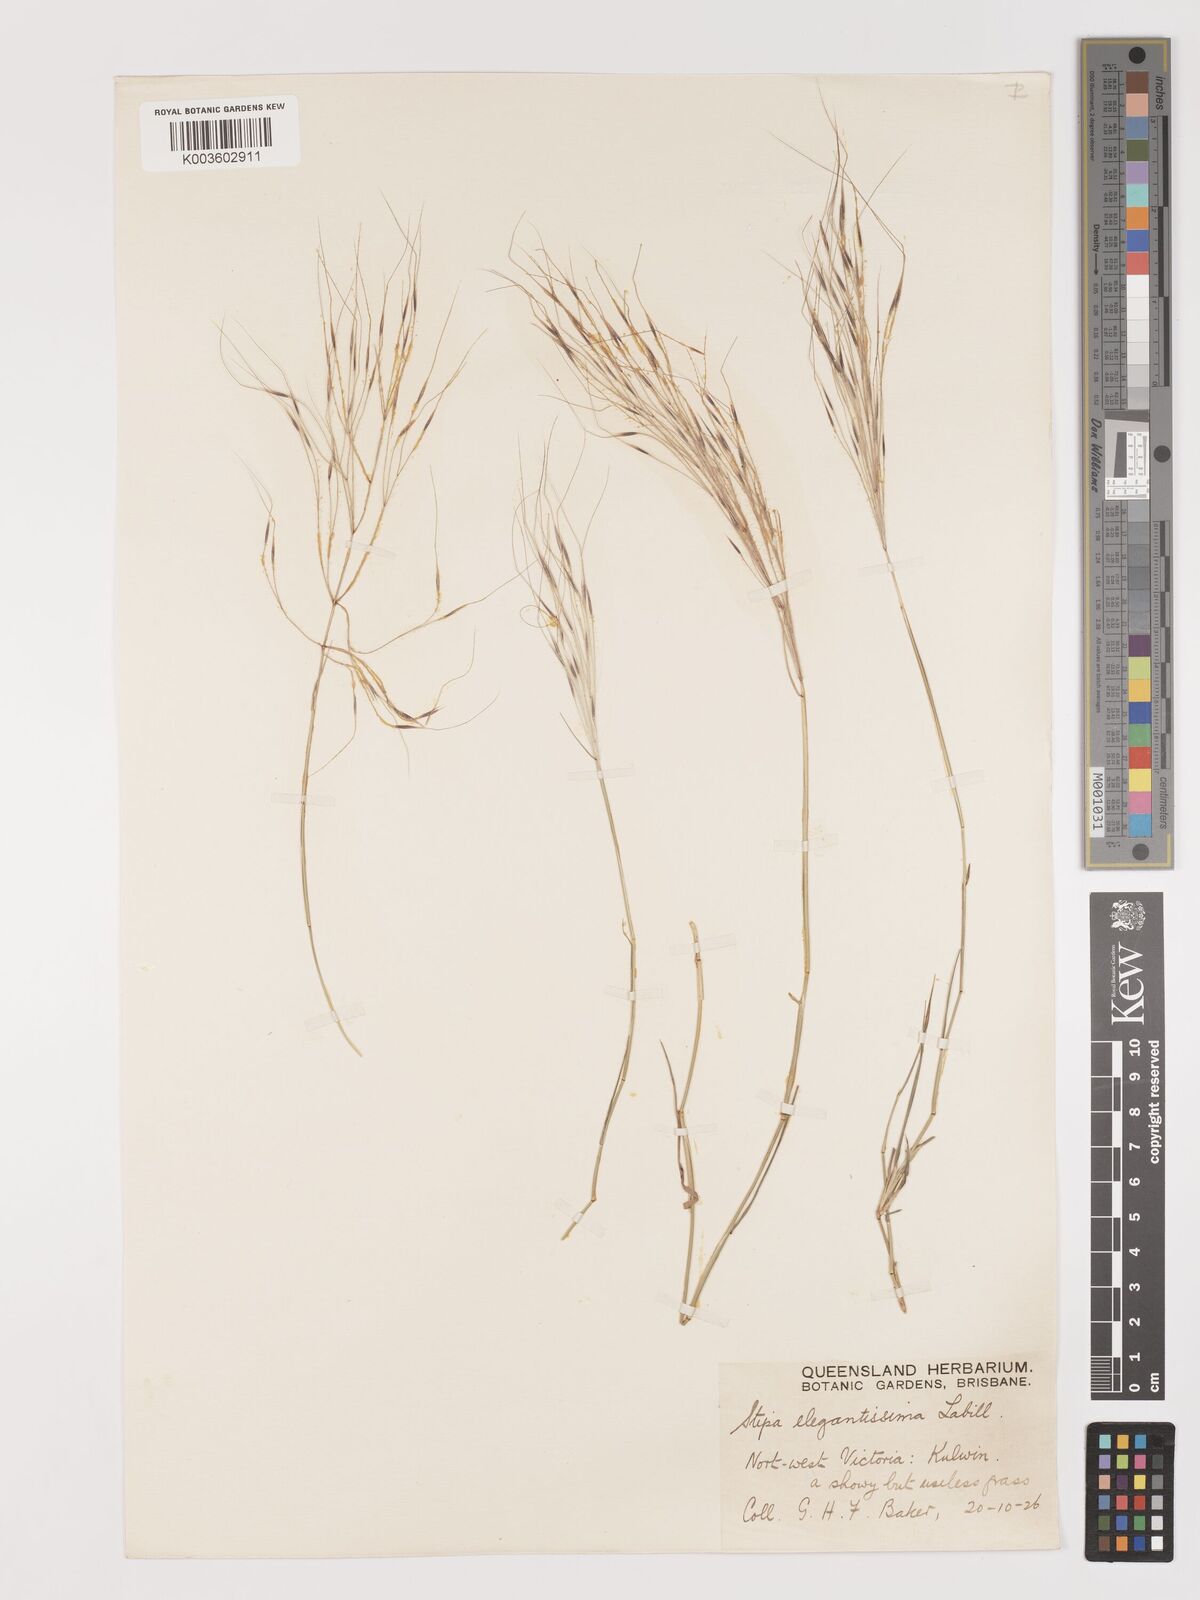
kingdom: Plantae
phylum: Tracheophyta
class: Liliopsida
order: Poales
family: Poaceae
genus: Austrostipa
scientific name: Austrostipa elegantissima
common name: Feather spear grass
